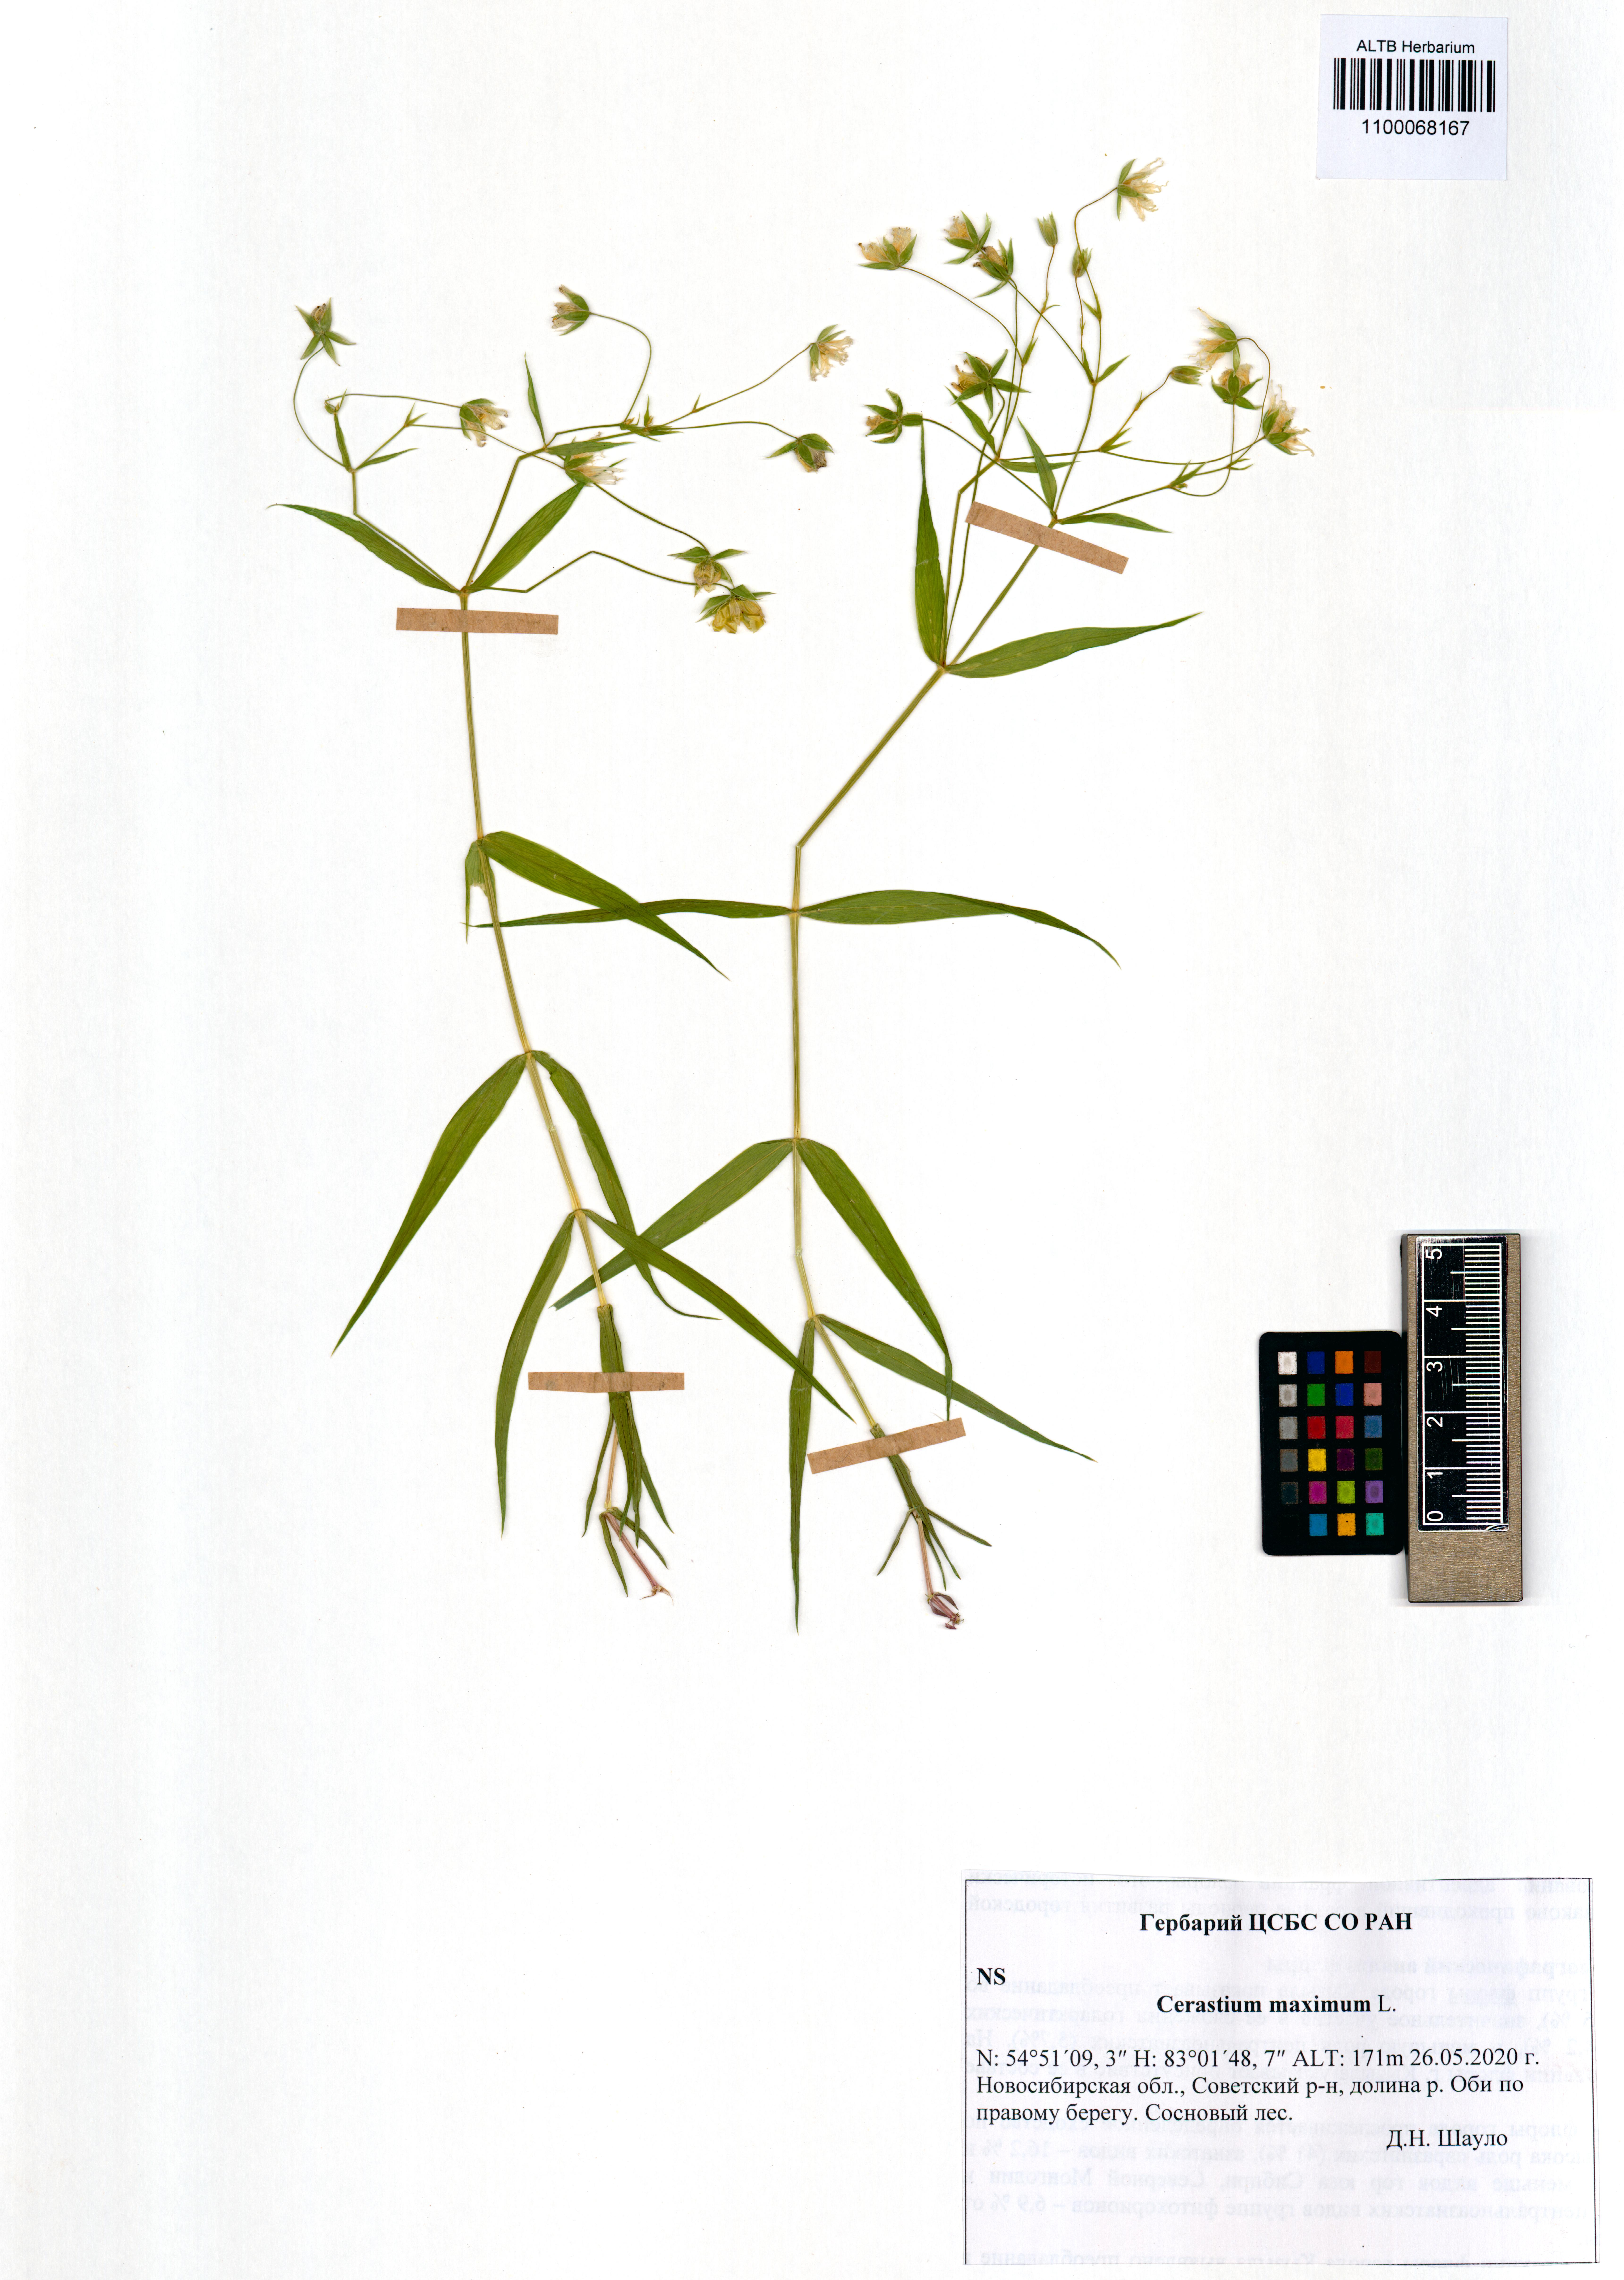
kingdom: Plantae
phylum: Tracheophyta
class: Magnoliopsida
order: Caryophyllales
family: Caryophyllaceae
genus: Dichodon
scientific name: Dichodon maximum
